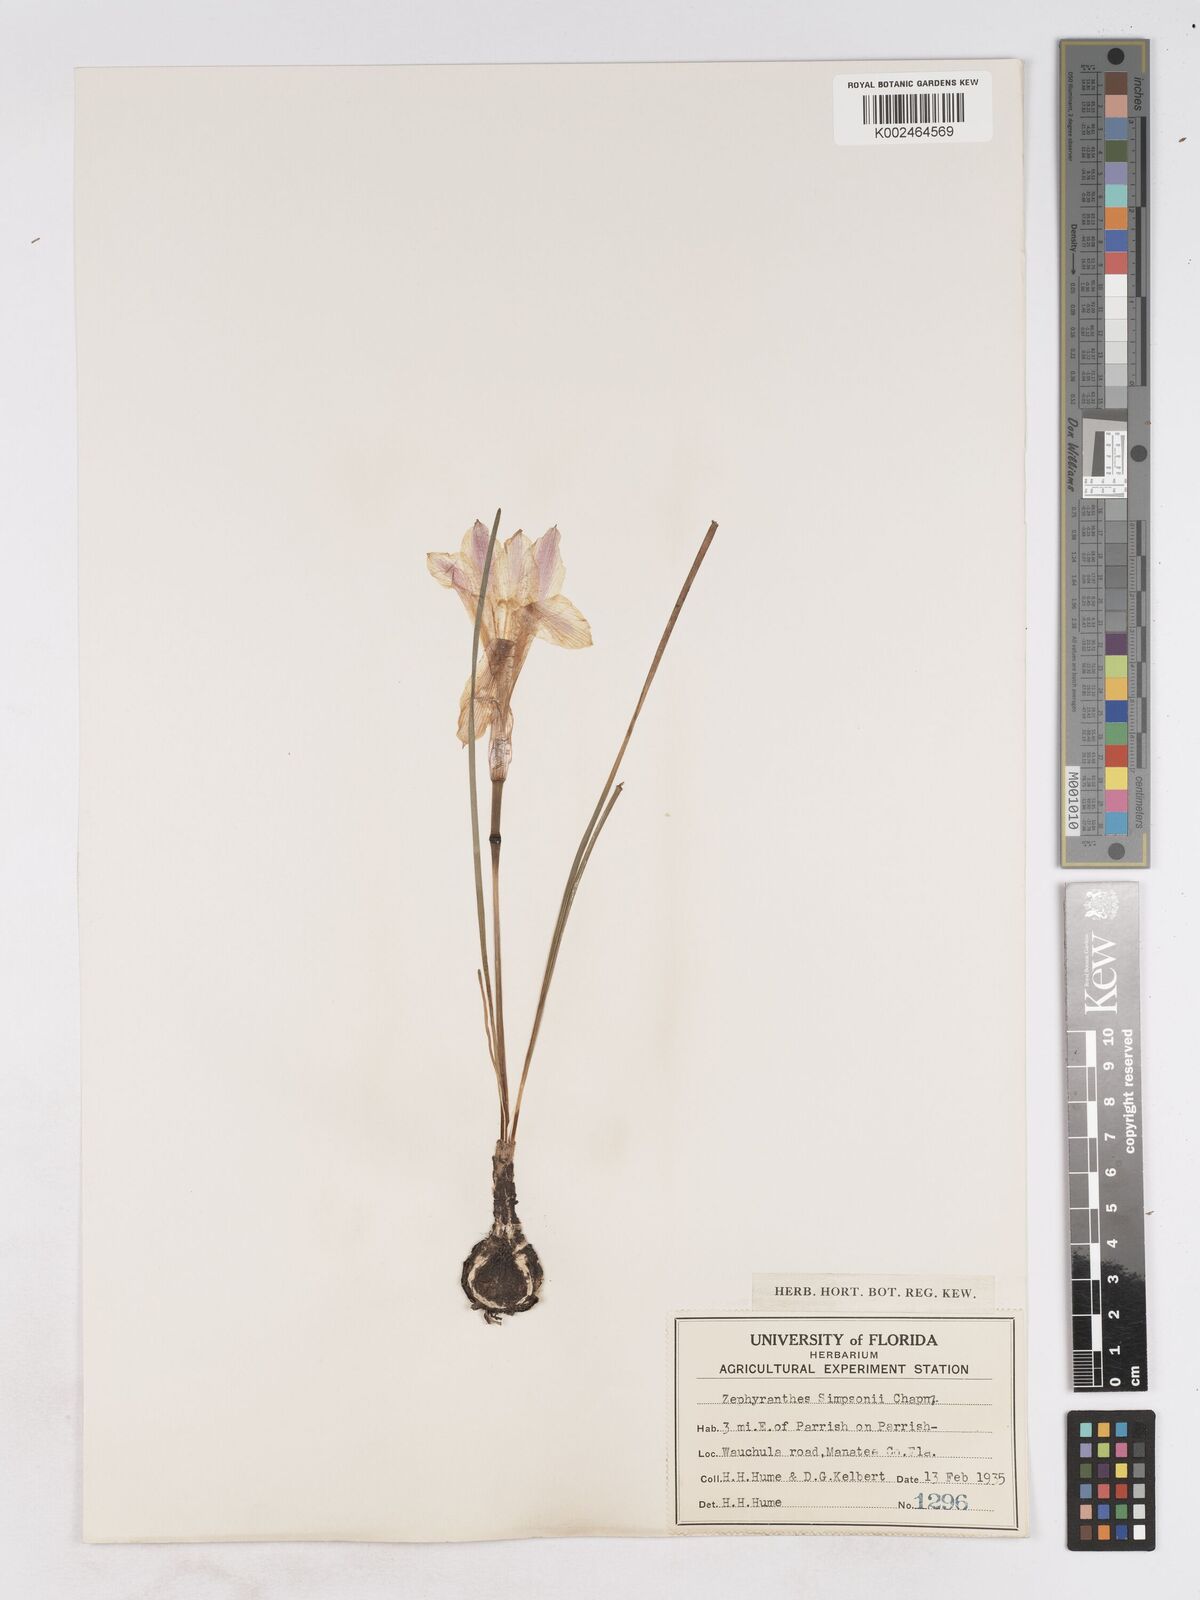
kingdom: Plantae
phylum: Tracheophyta
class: Liliopsida
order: Asparagales
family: Amaryllidaceae
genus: Zephyranthes
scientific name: Zephyranthes simpsonii
